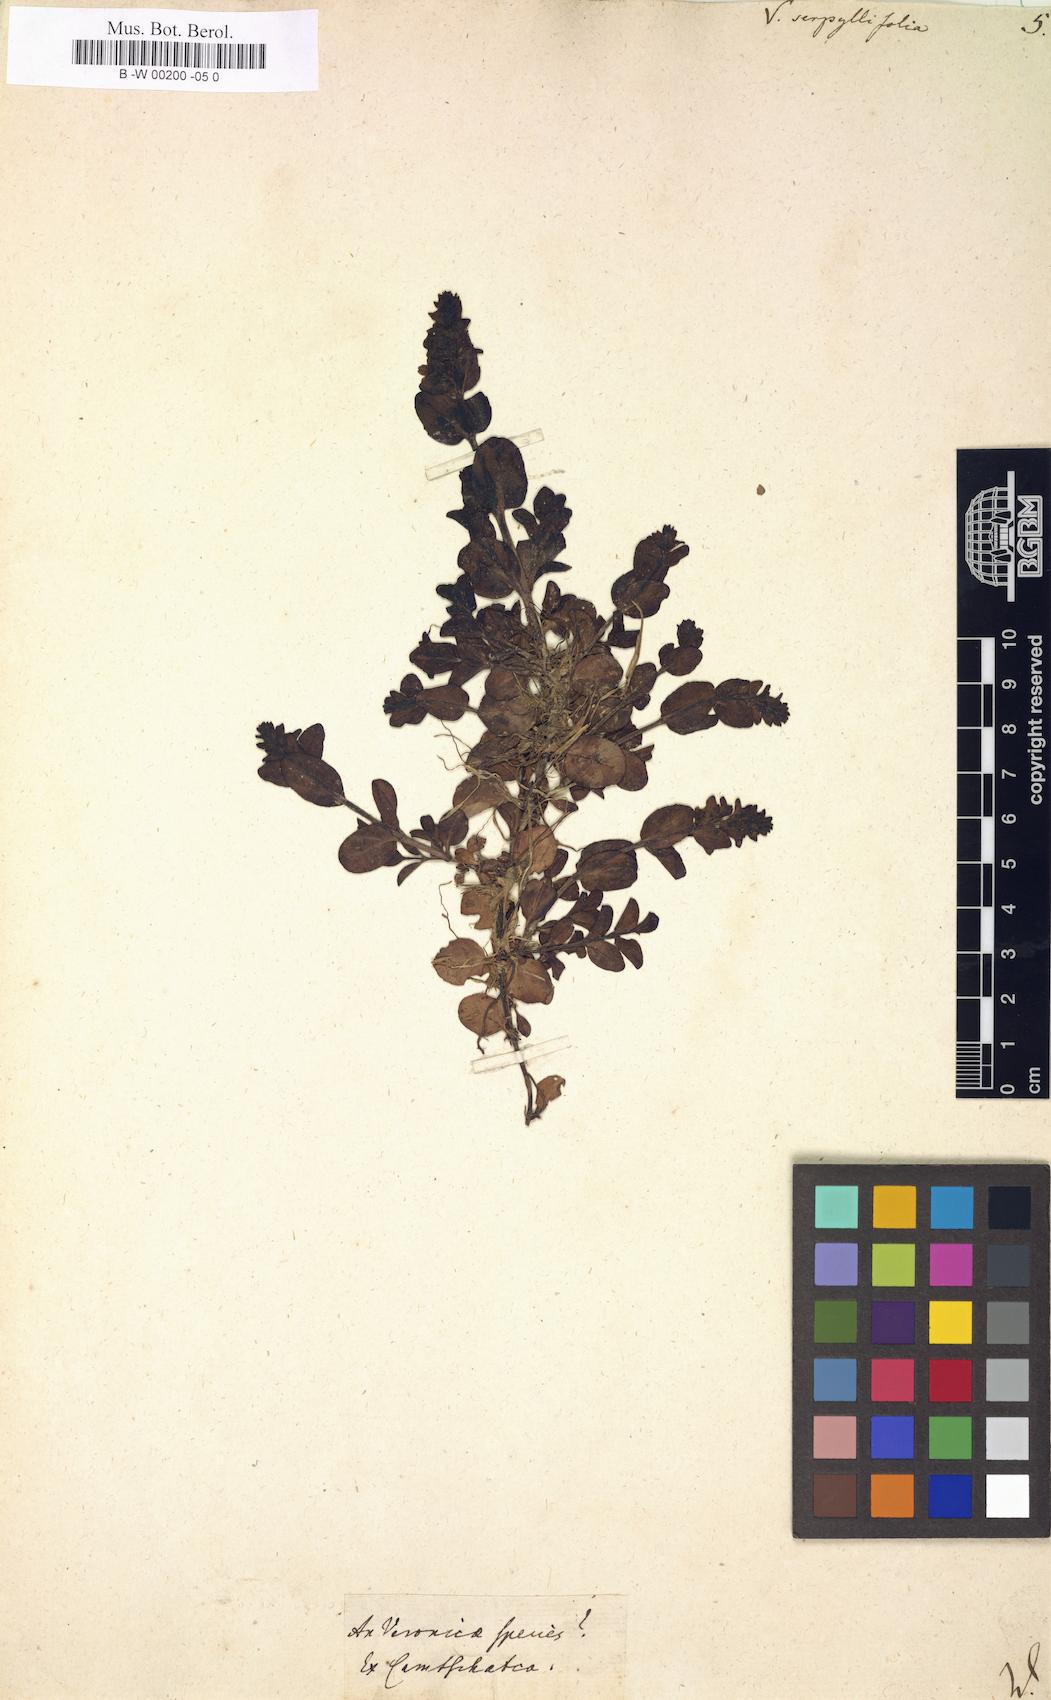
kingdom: Plantae
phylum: Tracheophyta
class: Magnoliopsida
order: Lamiales
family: Plantaginaceae
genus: Veronica
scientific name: Veronica serpyllifolia
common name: Thyme-leaved speedwell
